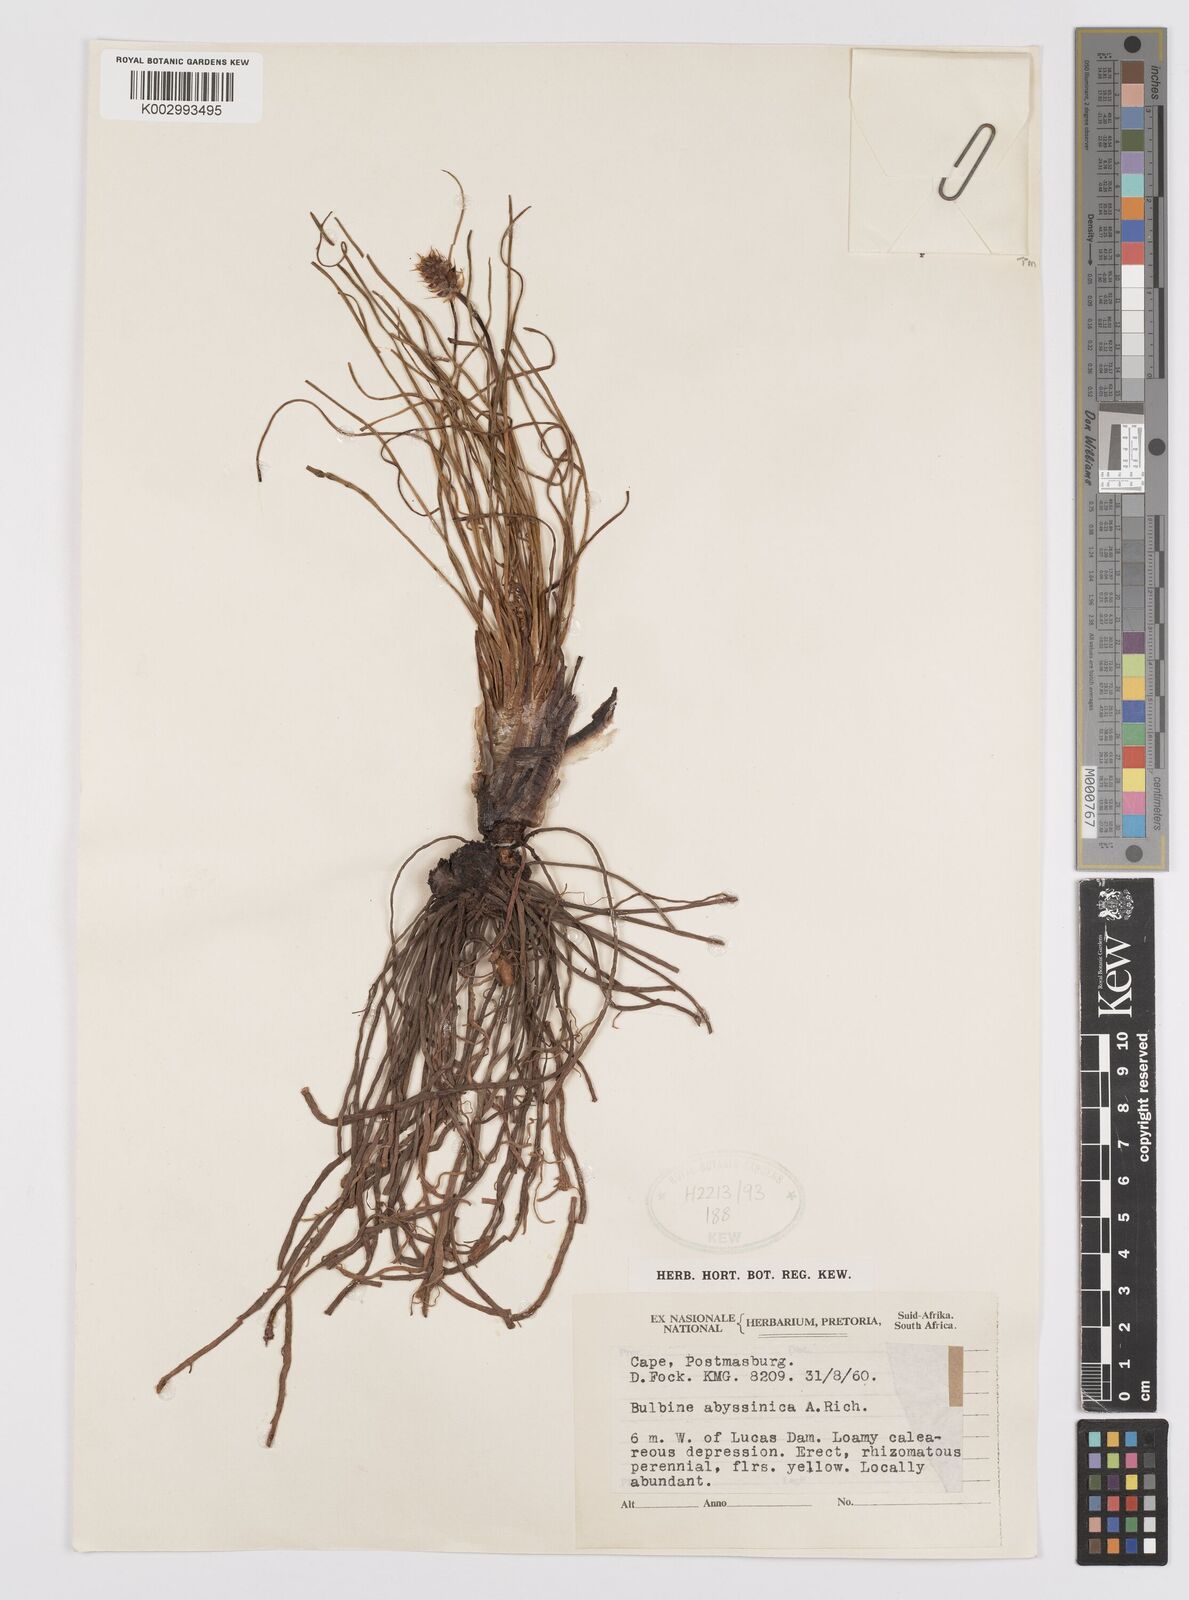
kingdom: Plantae
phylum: Tracheophyta
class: Liliopsida
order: Asparagales
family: Asphodelaceae
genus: Bulbine
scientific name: Bulbine abyssinica
